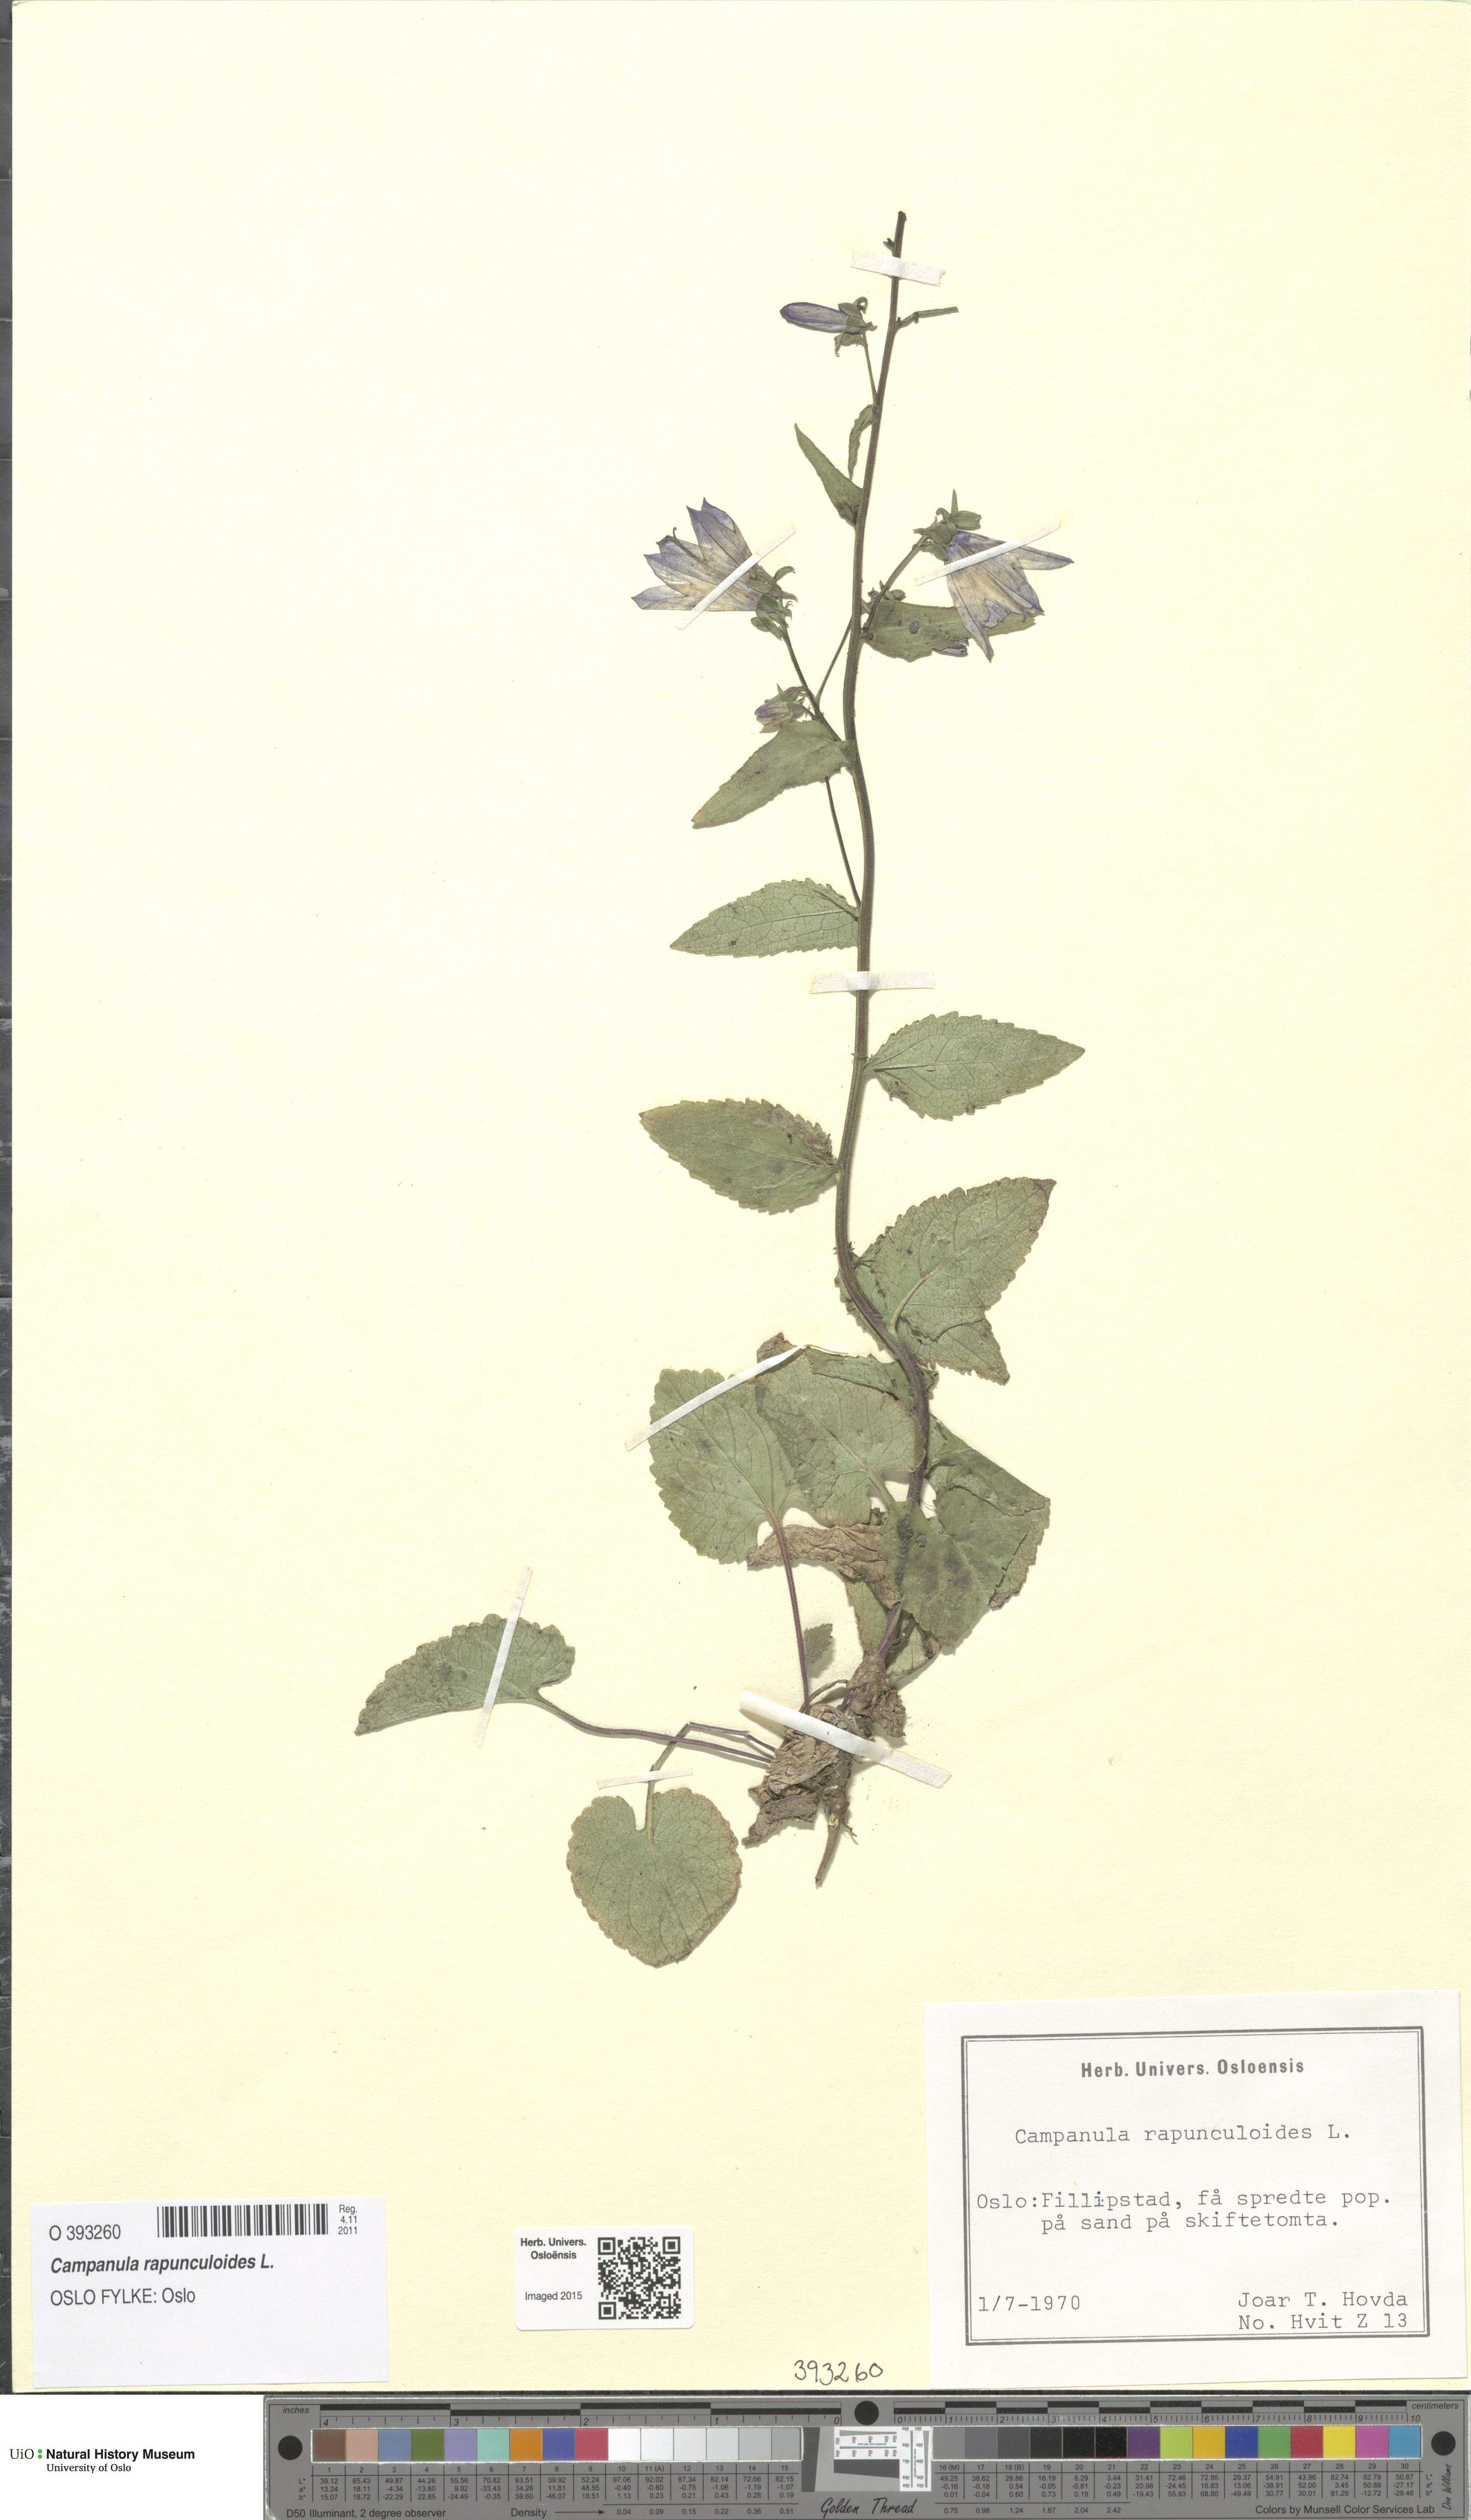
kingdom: Plantae
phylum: Tracheophyta
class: Magnoliopsida
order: Asterales
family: Campanulaceae
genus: Campanula
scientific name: Campanula rapunculoides
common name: Creeping bellflower
